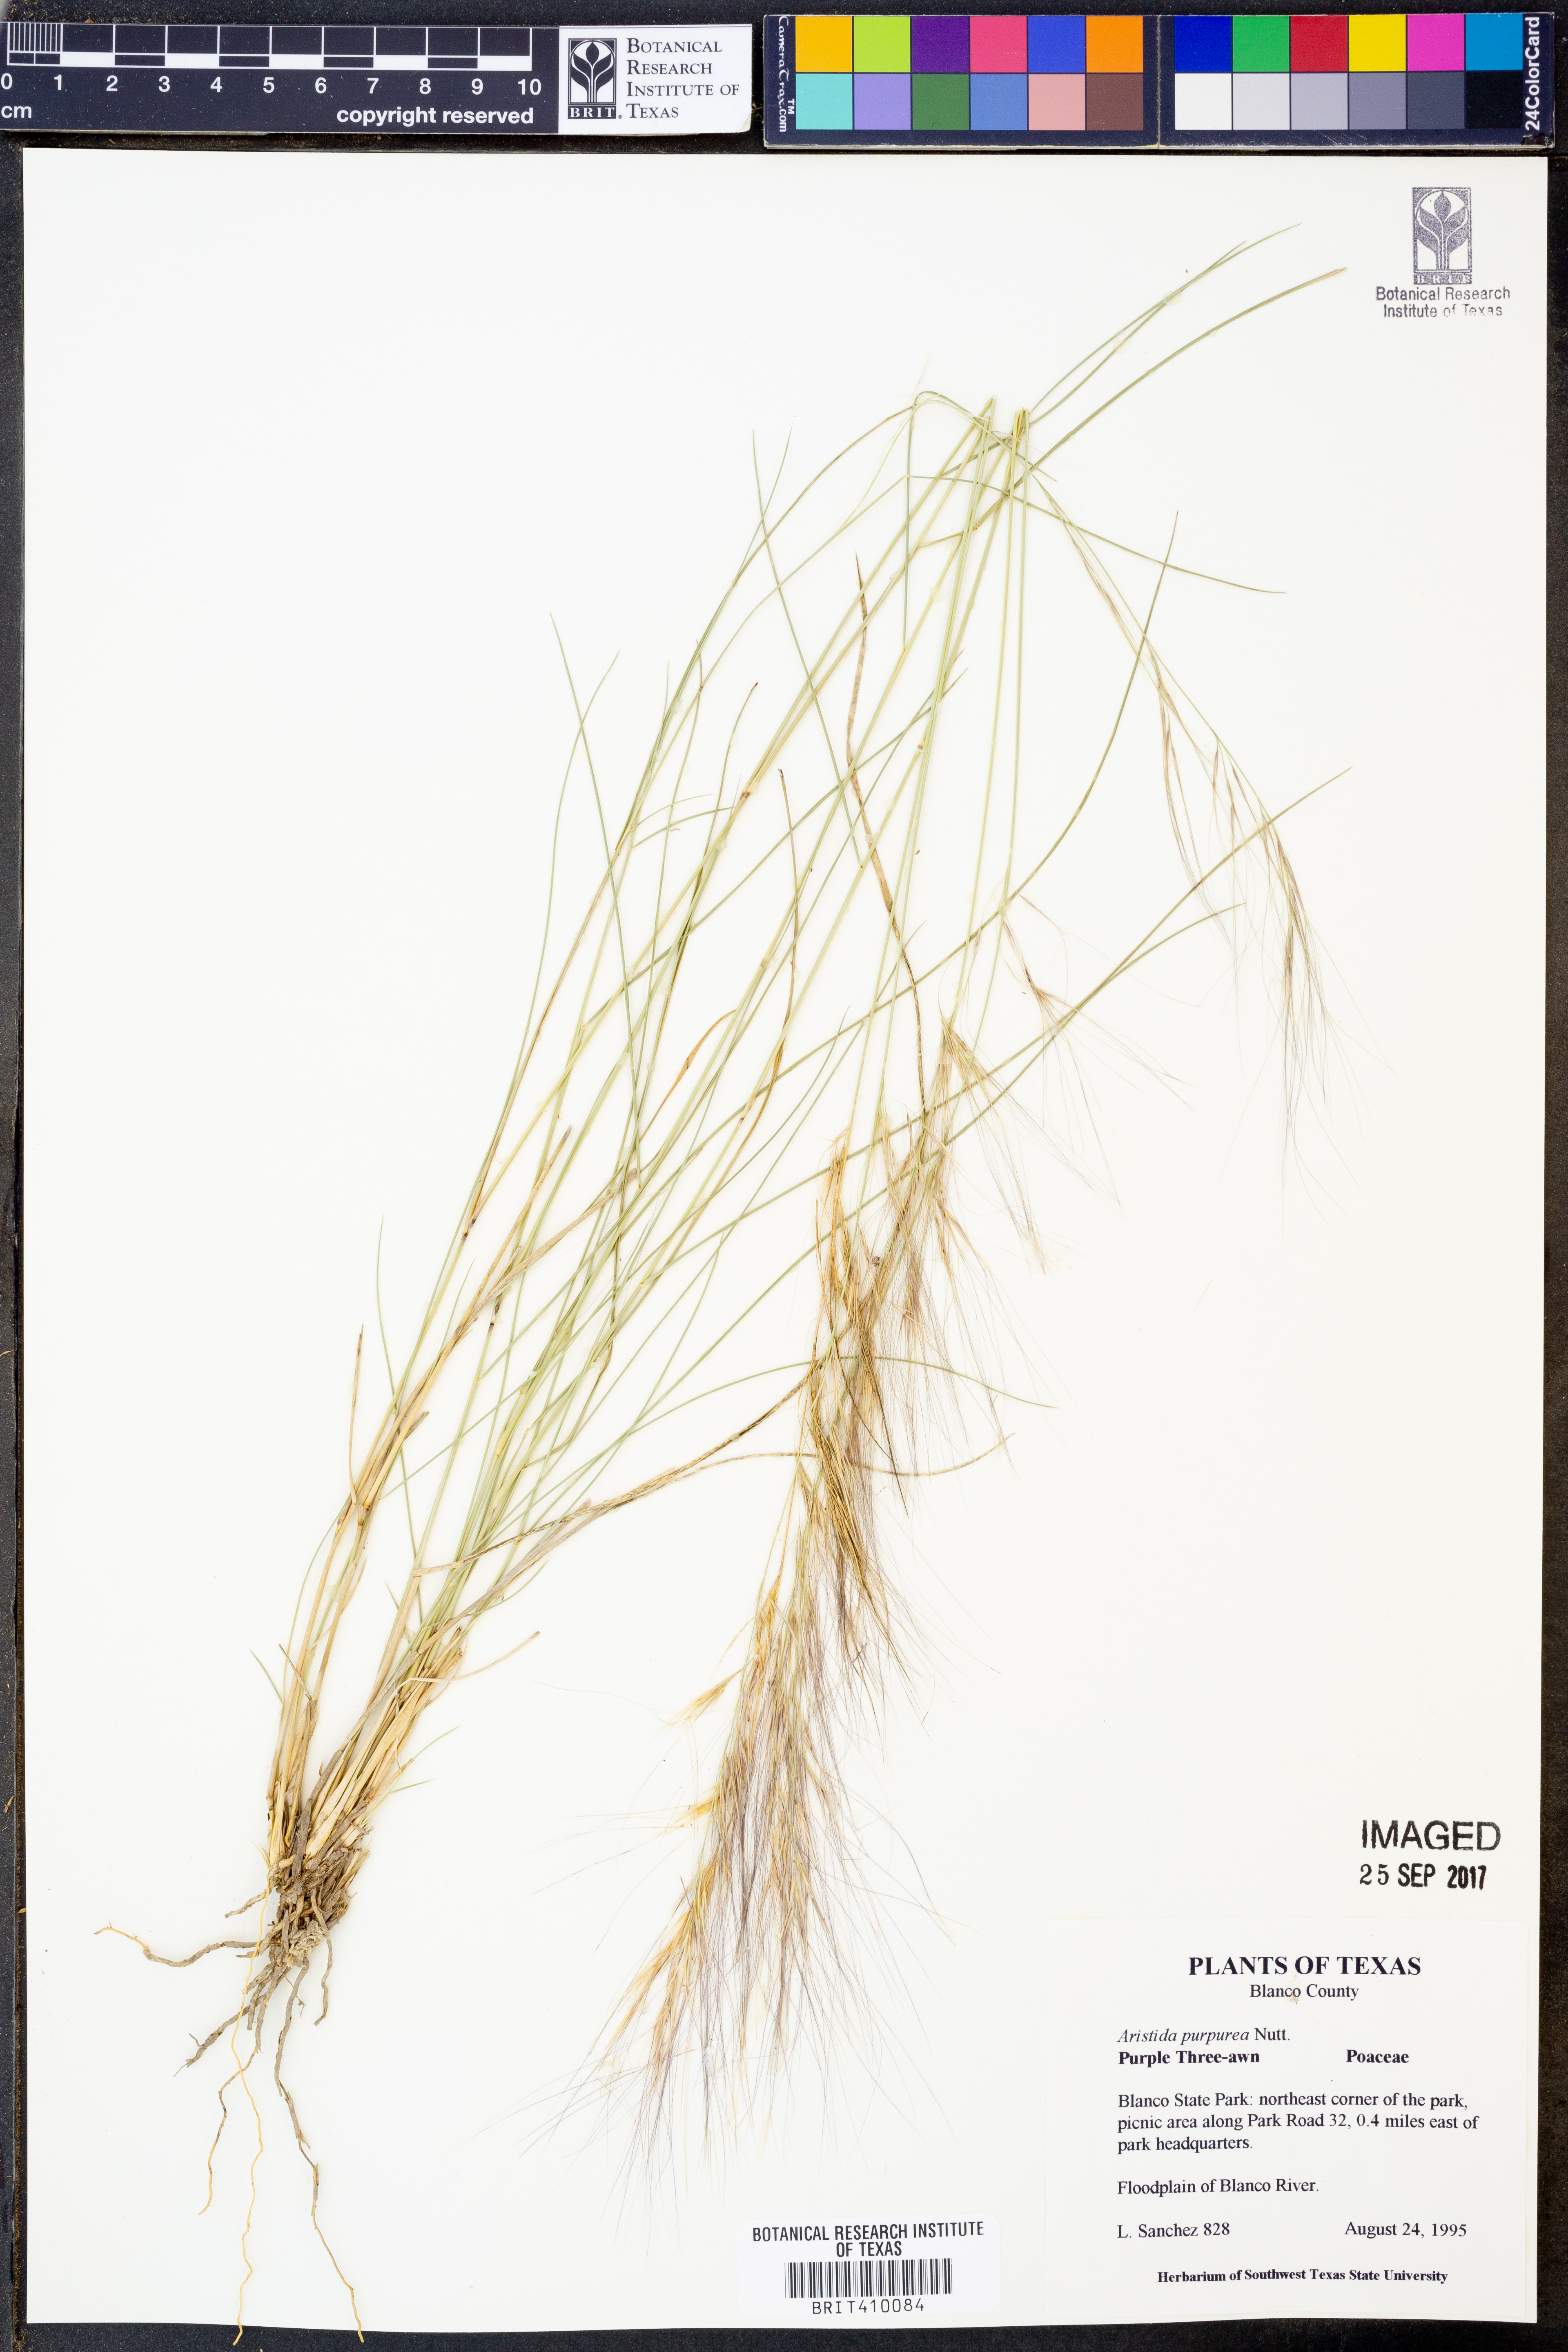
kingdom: Plantae
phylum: Tracheophyta
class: Liliopsida
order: Poales
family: Poaceae
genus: Aristida
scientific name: Aristida purpurea
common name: Purple threeawn
